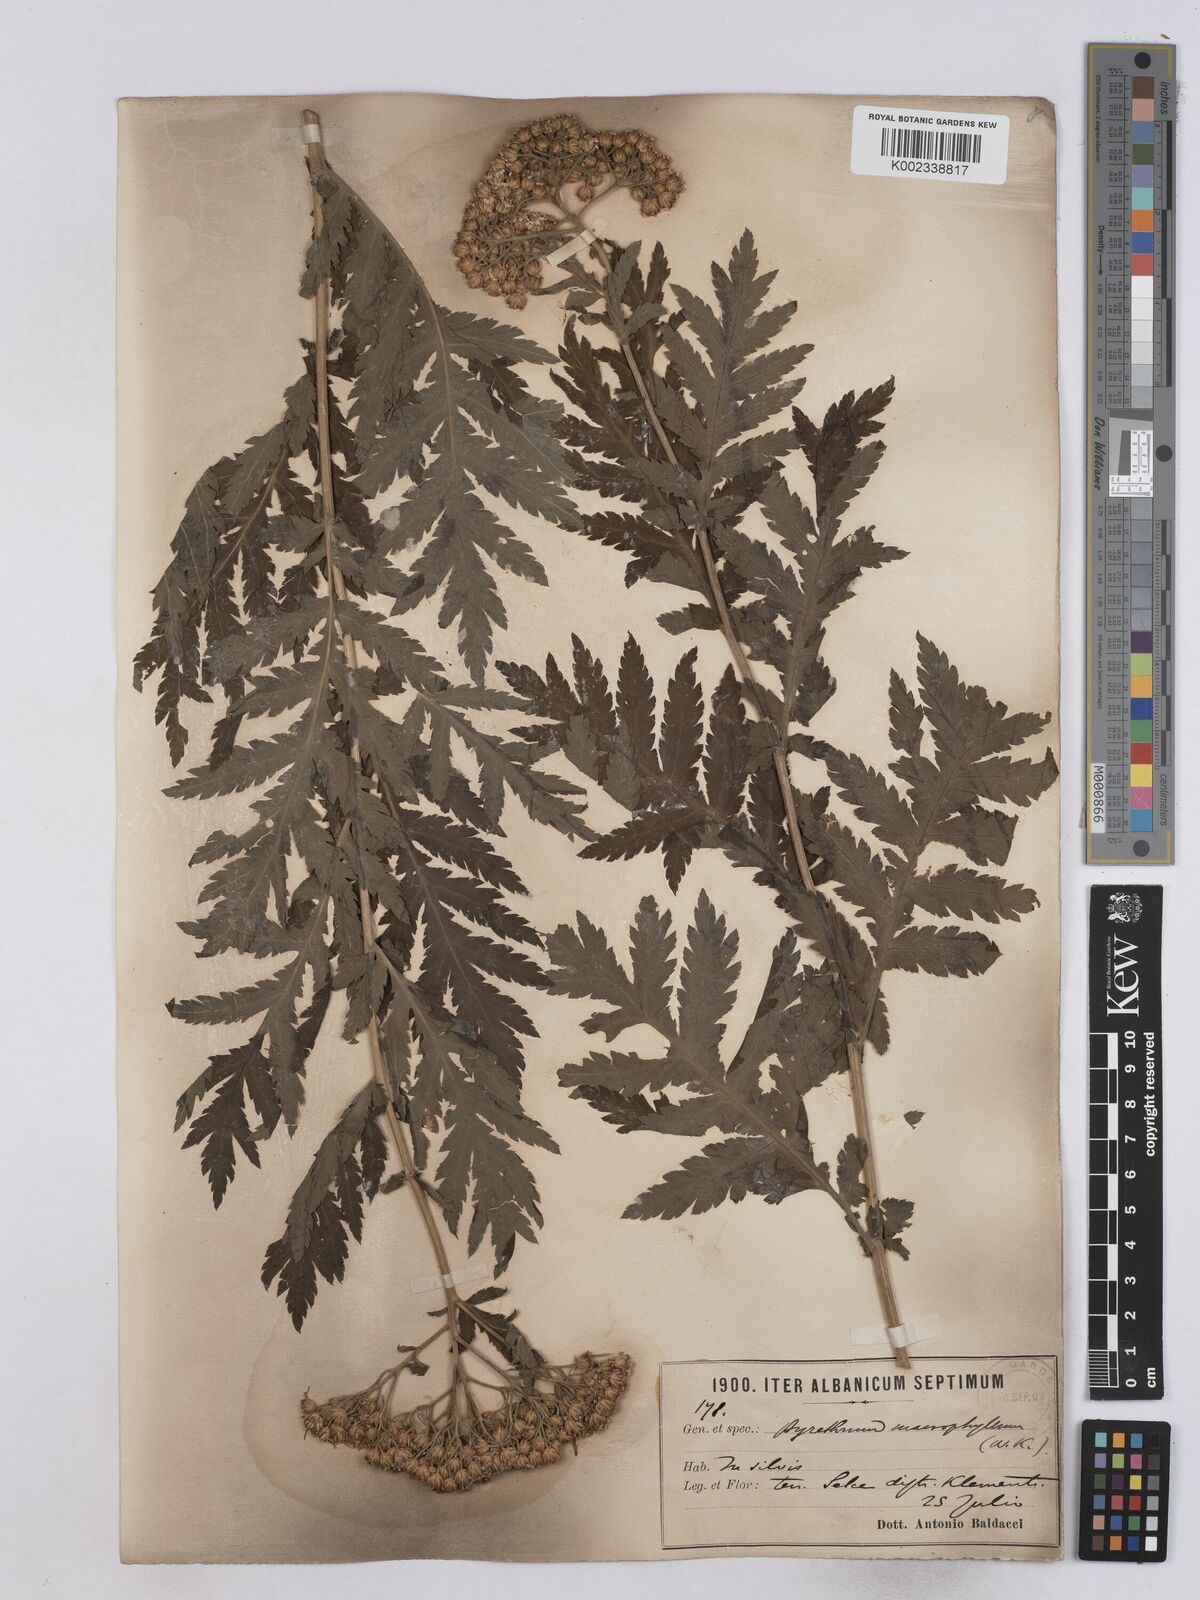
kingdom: Plantae
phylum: Tracheophyta
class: Magnoliopsida
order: Asterales
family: Asteraceae
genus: Tanacetum
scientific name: Tanacetum macrophyllum
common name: Rayed tansy
